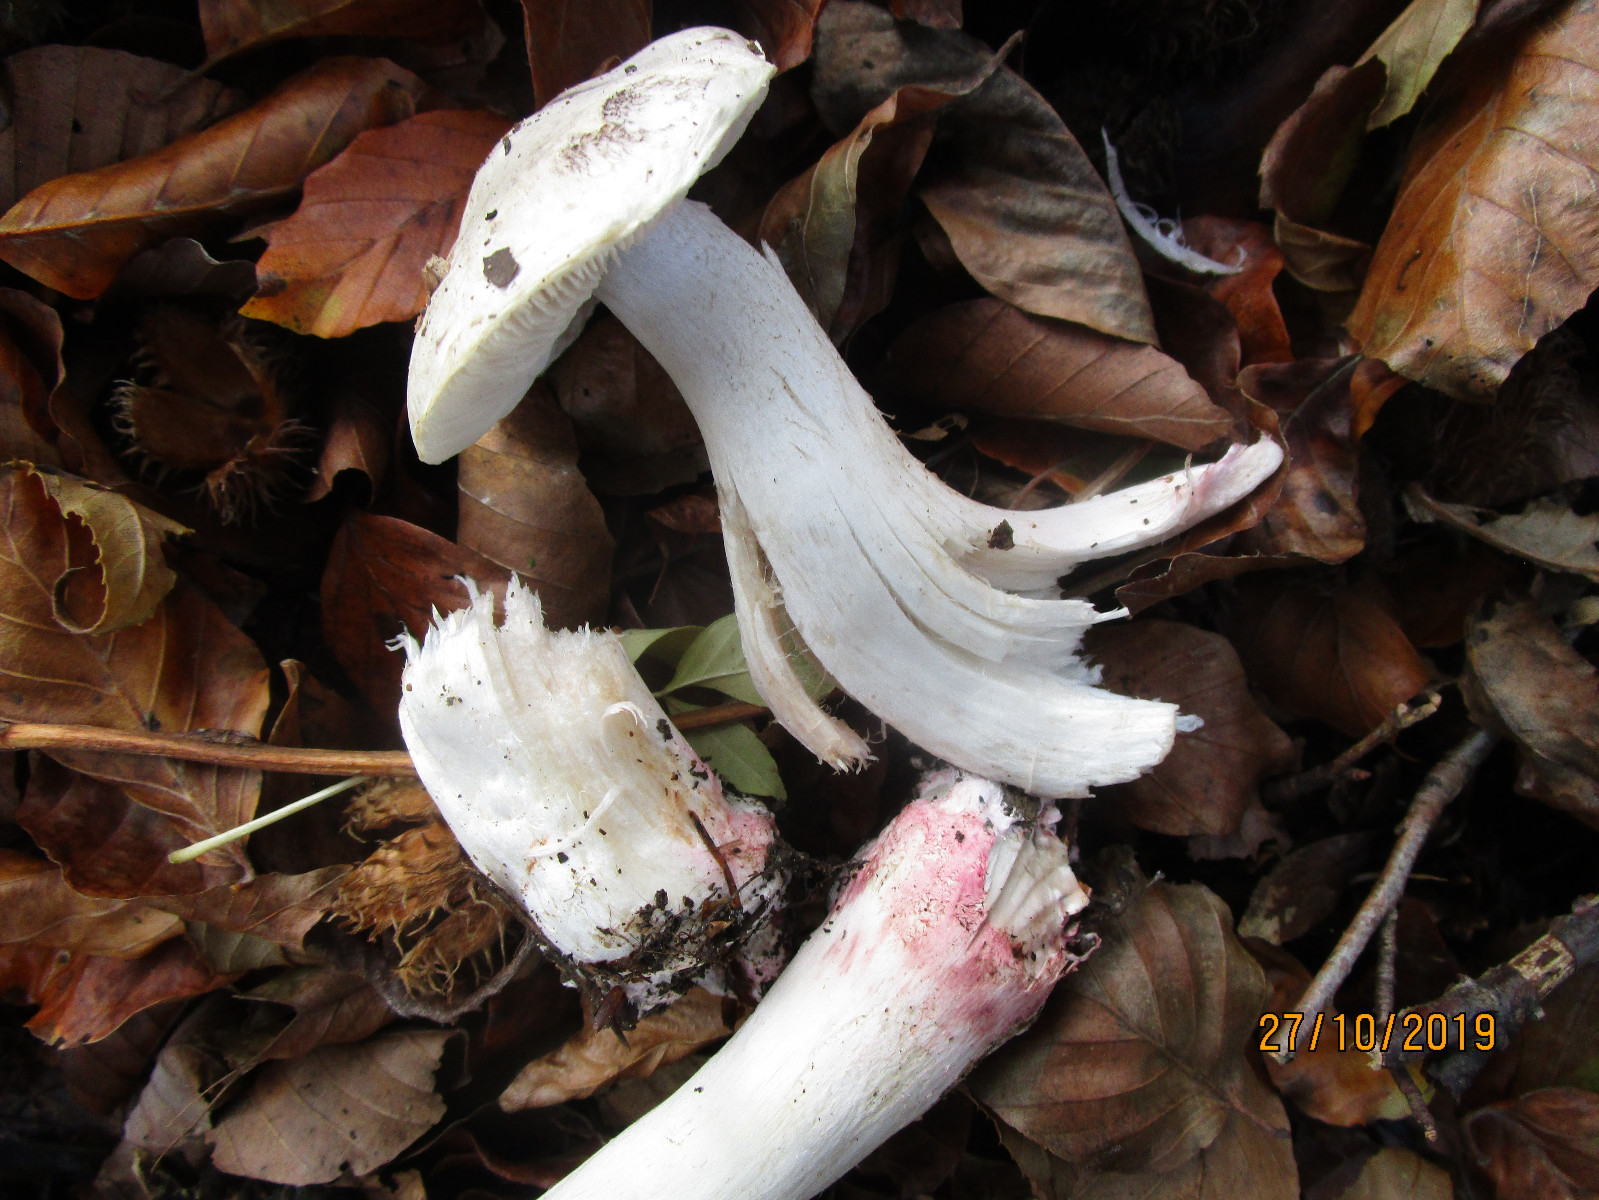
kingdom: Fungi
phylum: Basidiomycota
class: Agaricomycetes
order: Agaricales
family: Tricholomataceae
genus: Tricholoma
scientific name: Tricholoma orirubens
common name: rødbladet ridderhat
